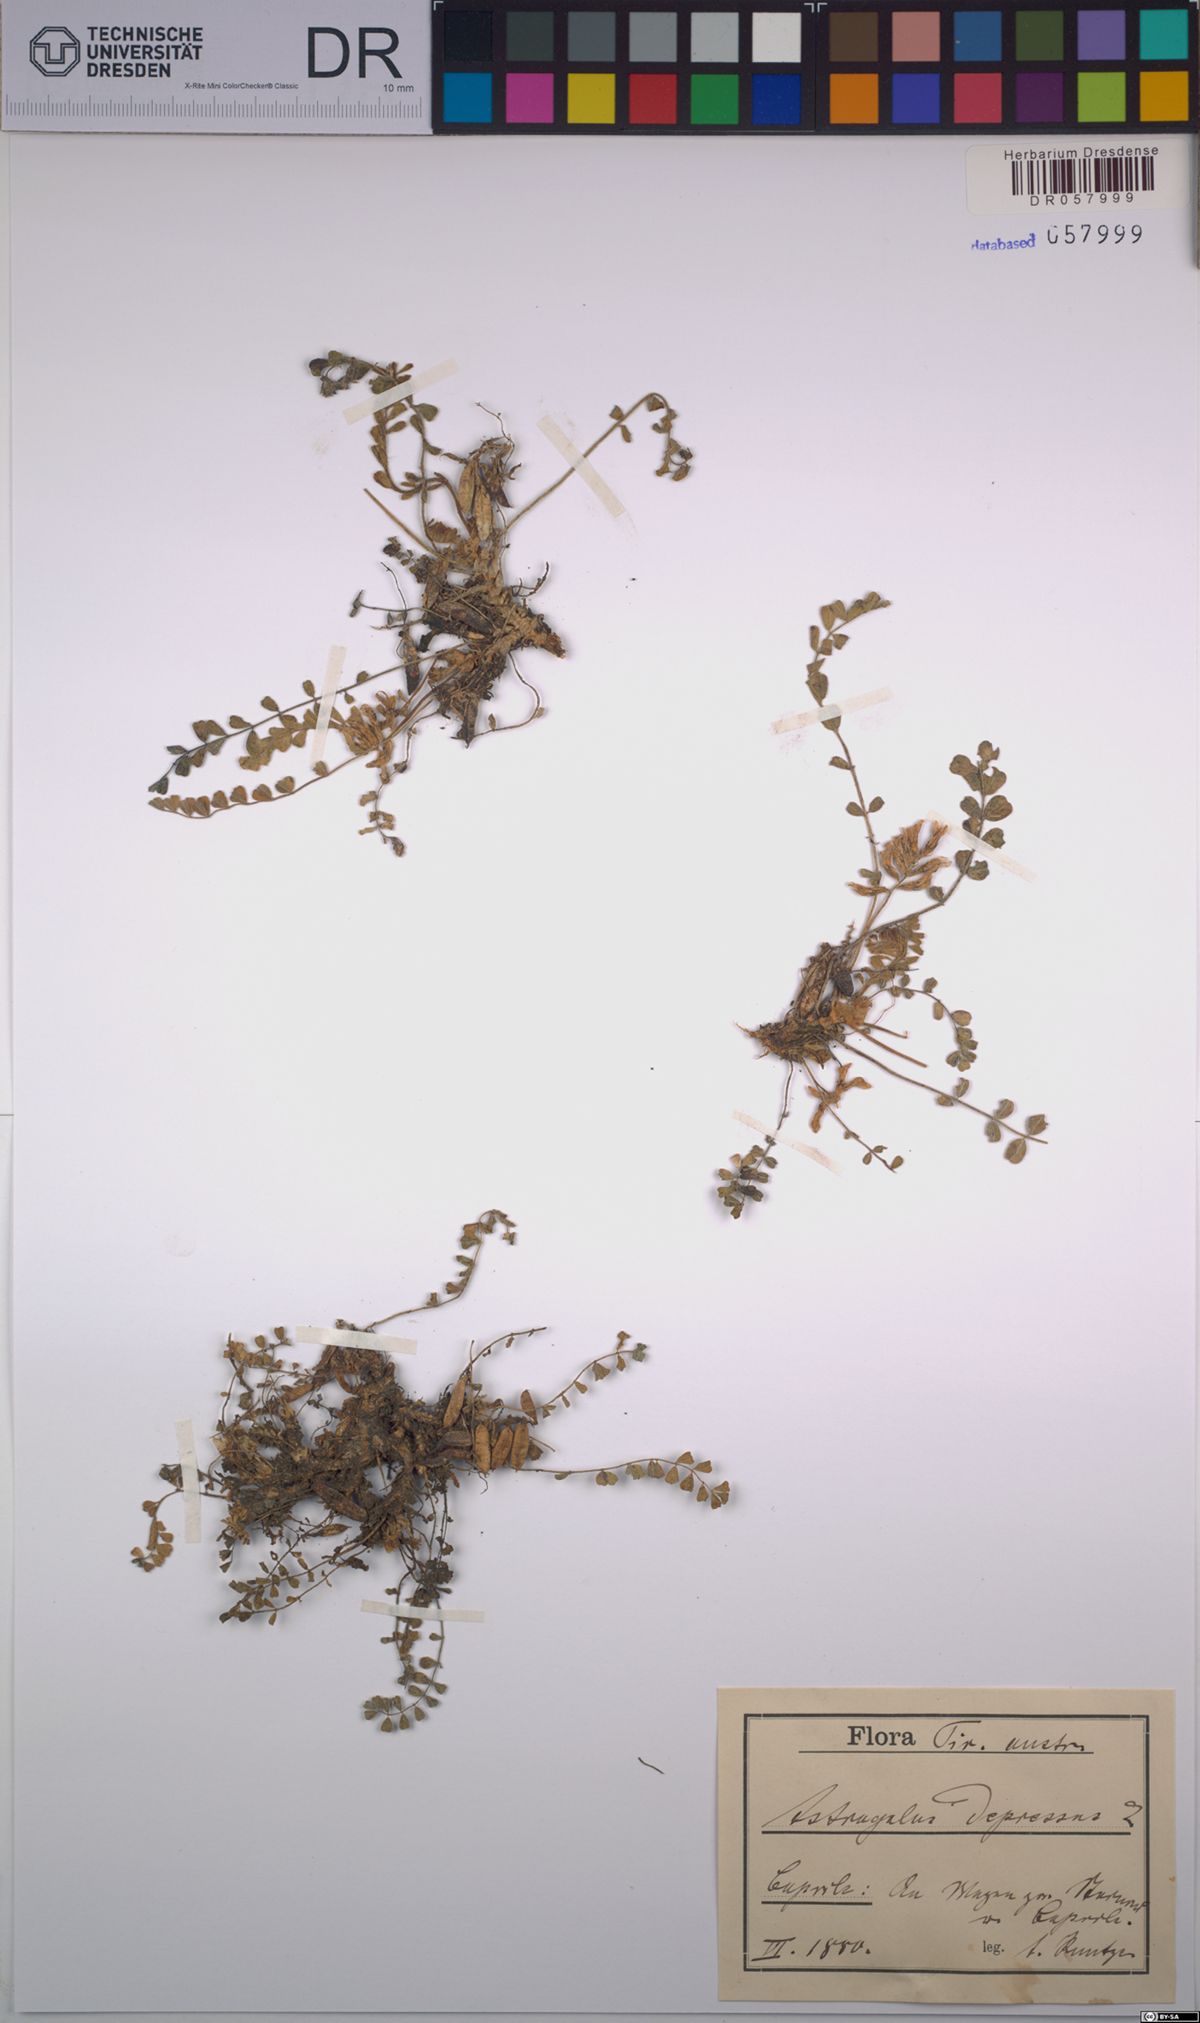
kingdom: Plantae
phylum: Tracheophyta
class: Magnoliopsida
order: Fabales
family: Fabaceae
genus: Astragalus
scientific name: Astragalus depressus
